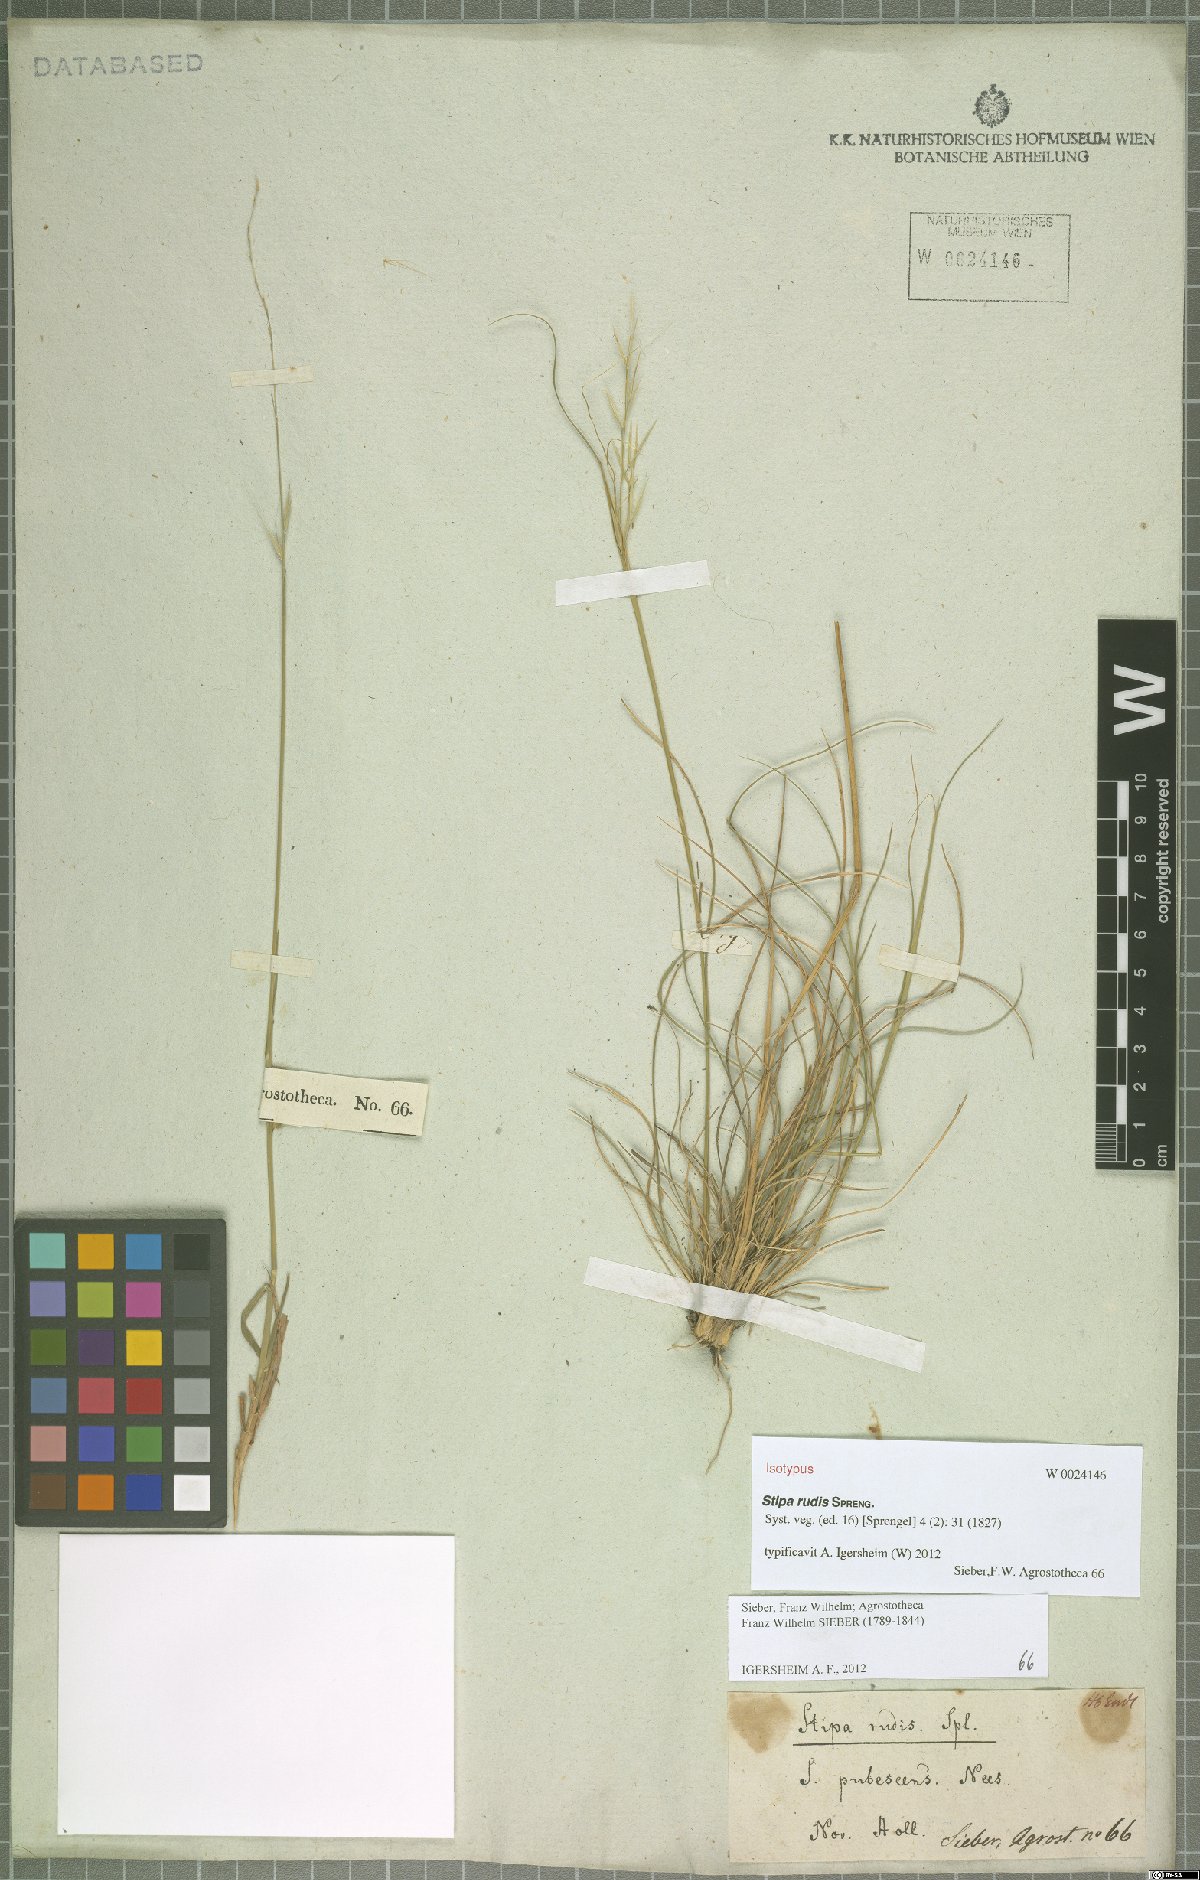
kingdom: Plantae
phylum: Tracheophyta
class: Liliopsida
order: Poales
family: Poaceae
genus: Austrostipa
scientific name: Austrostipa rudis
